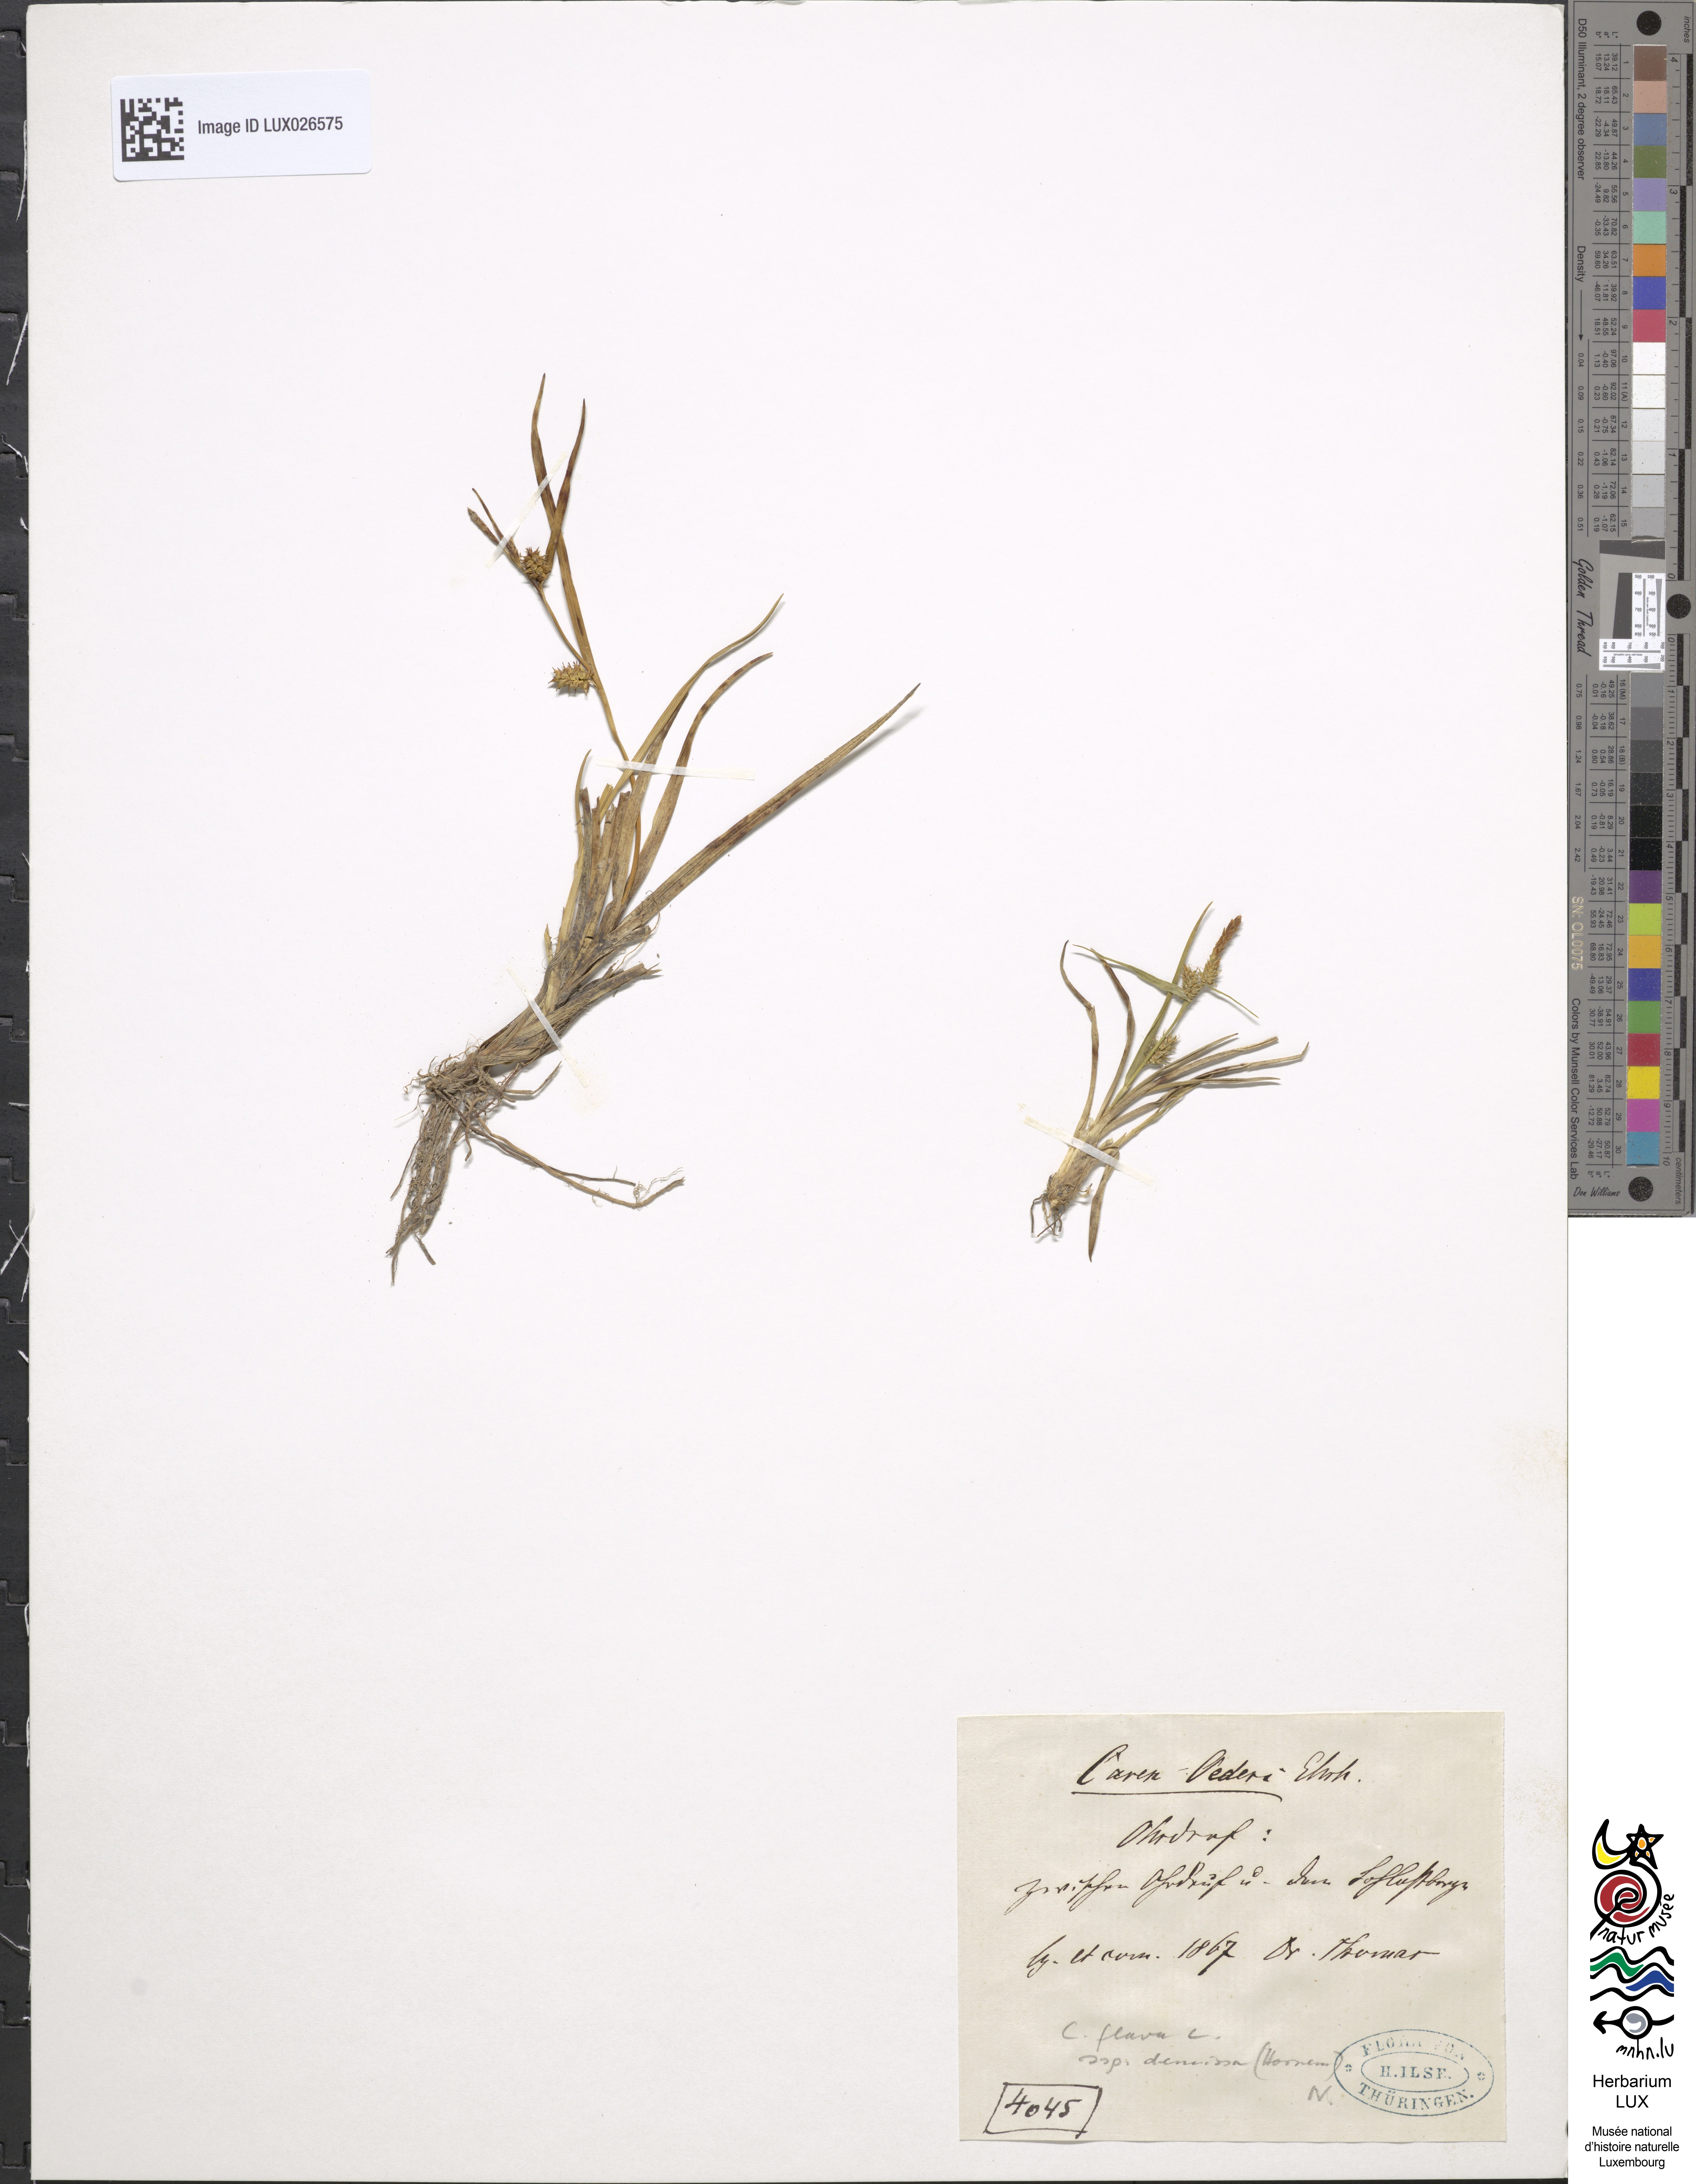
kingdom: Plantae
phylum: Tracheophyta
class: Liliopsida
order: Poales
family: Cyperaceae
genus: Carex
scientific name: Carex demissa
